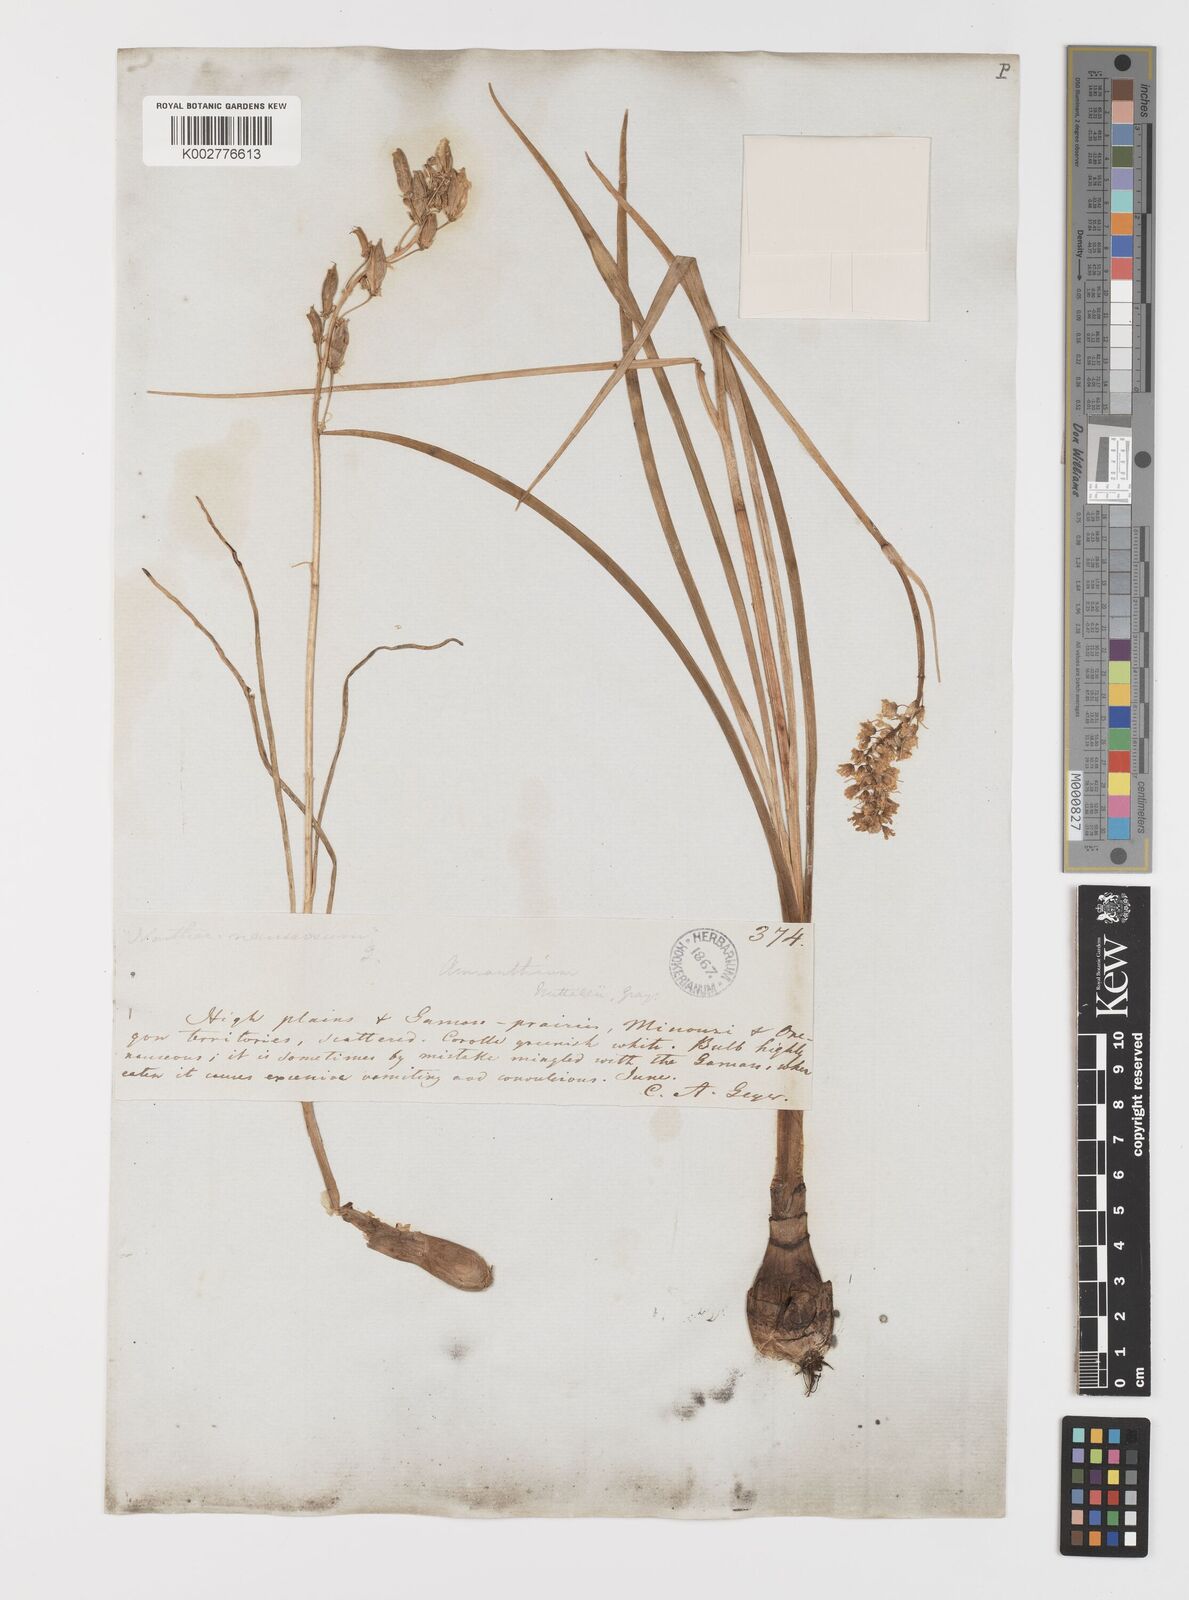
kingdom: Plantae
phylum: Tracheophyta
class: Liliopsida
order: Liliales
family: Melanthiaceae
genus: Toxicoscordion
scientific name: Toxicoscordion venenosum
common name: Meadow death camas
